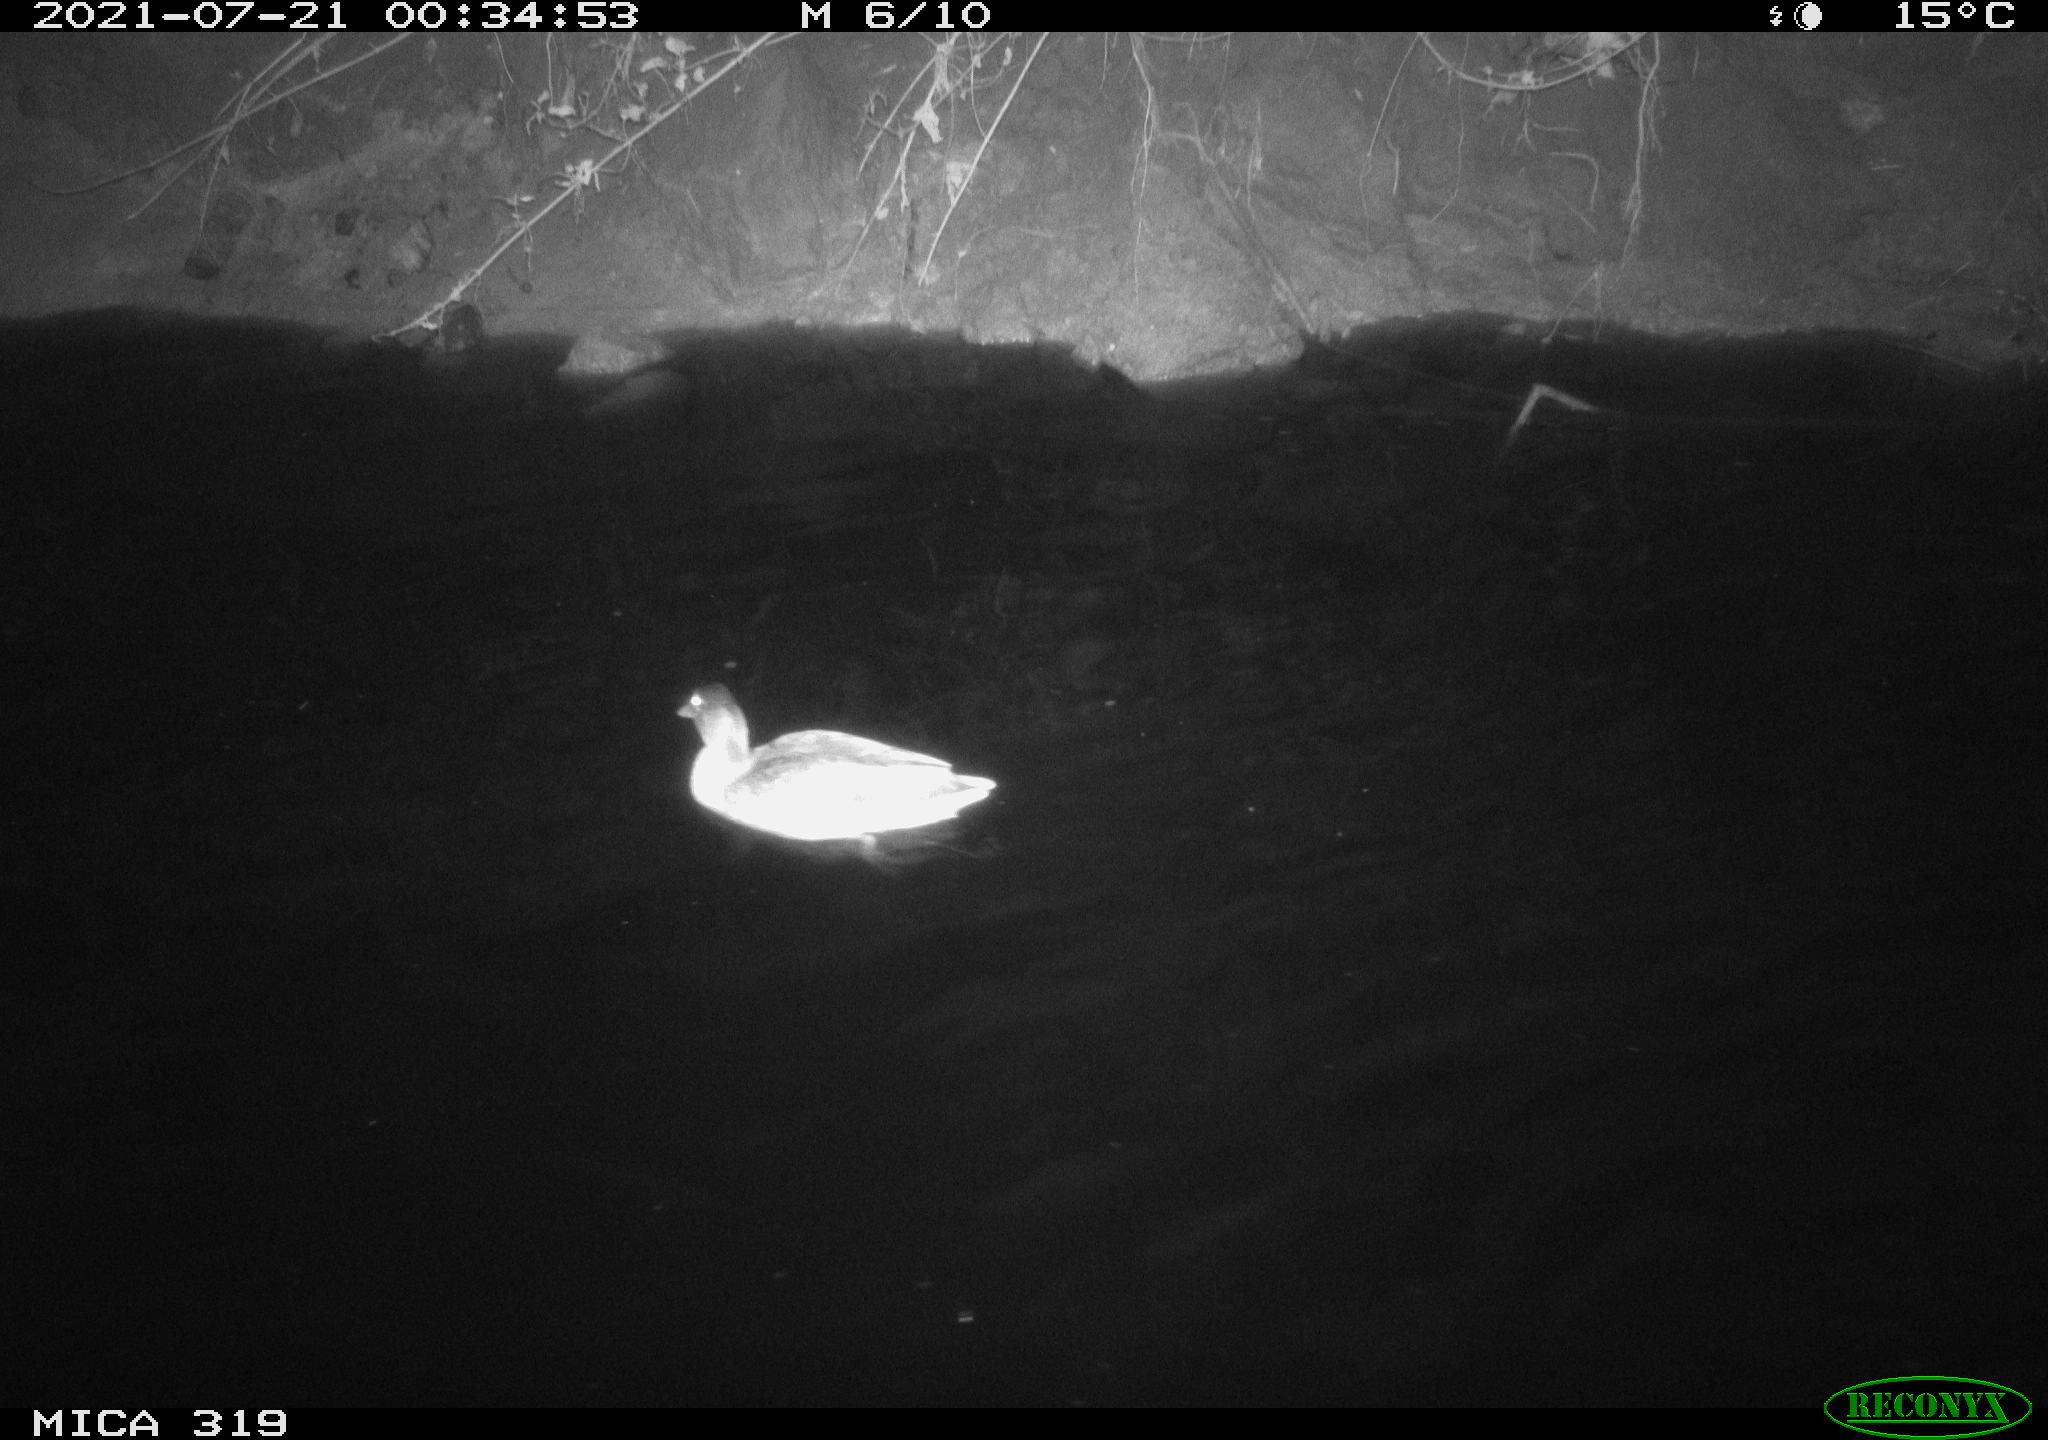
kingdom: Animalia
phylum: Chordata
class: Aves
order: Anseriformes
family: Anatidae
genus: Anas
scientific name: Anas platyrhynchos
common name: Mallard
